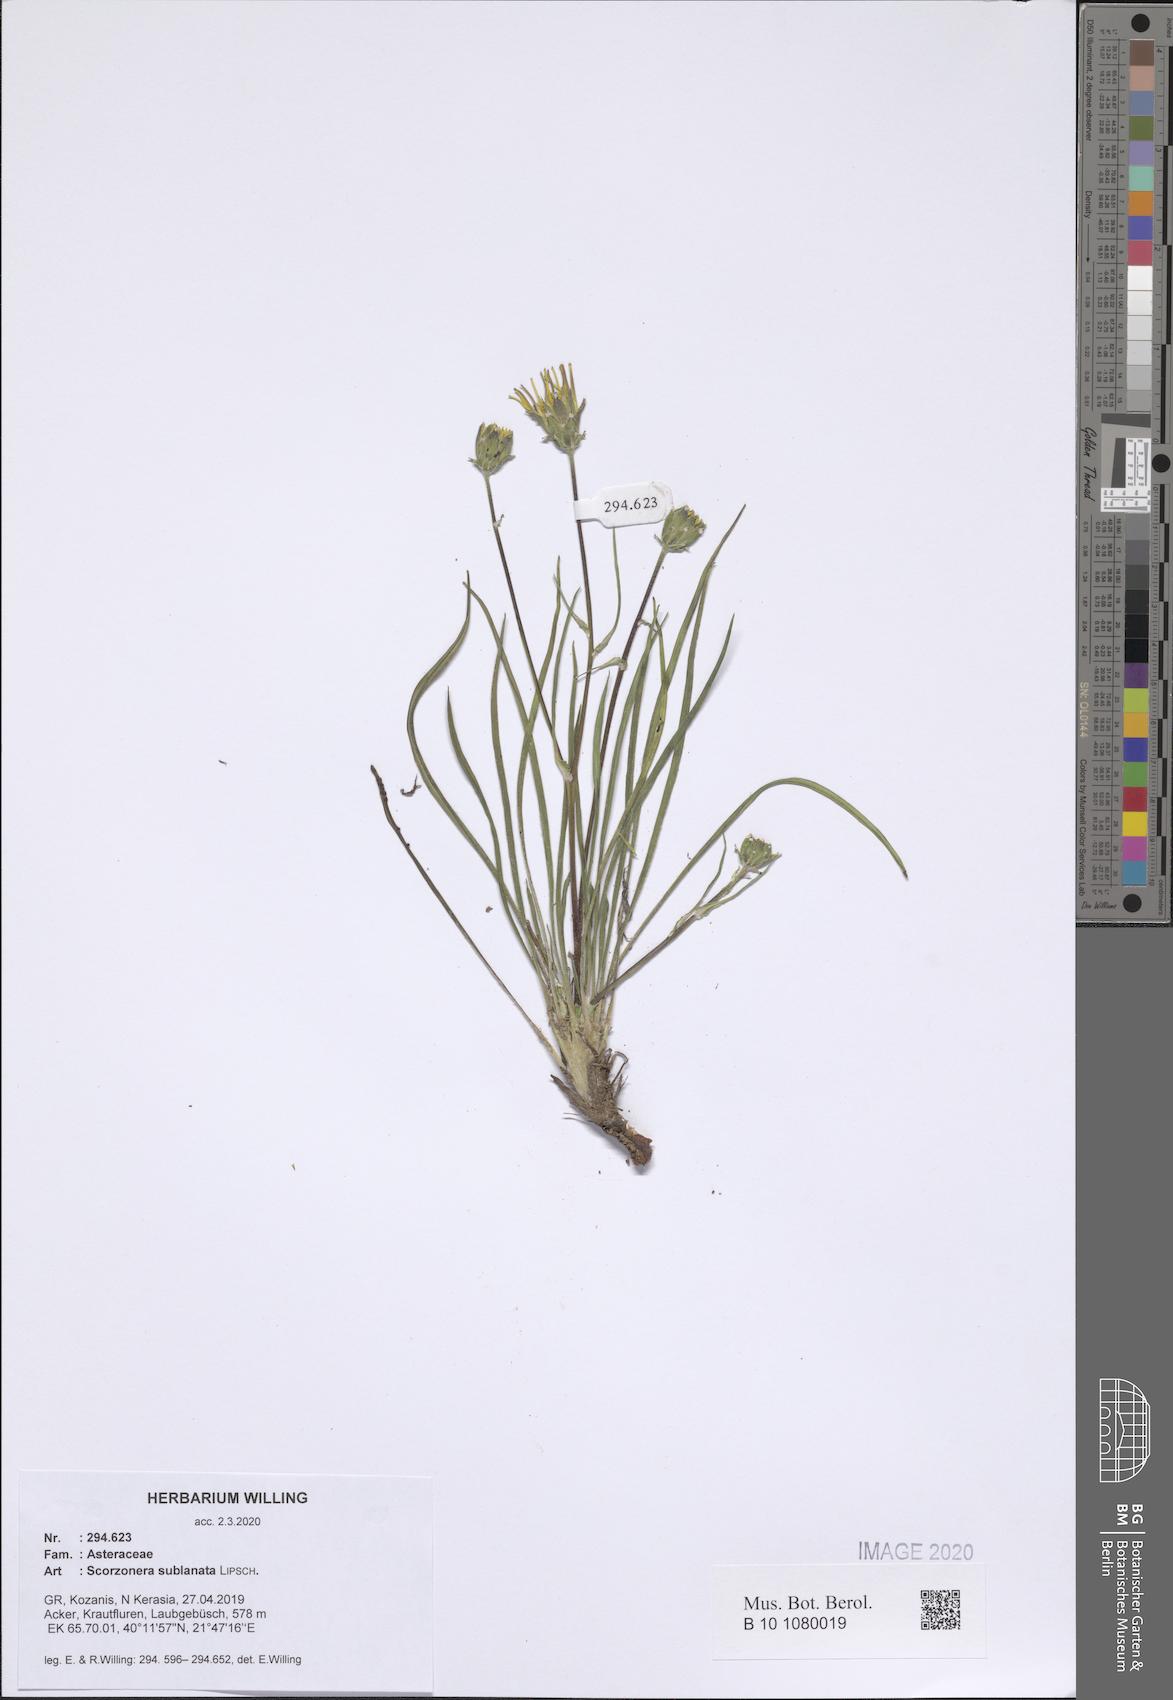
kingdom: Plantae
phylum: Tracheophyta
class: Magnoliopsida
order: Asterales
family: Asteraceae
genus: Bocquetia
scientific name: Bocquetia sublanata
